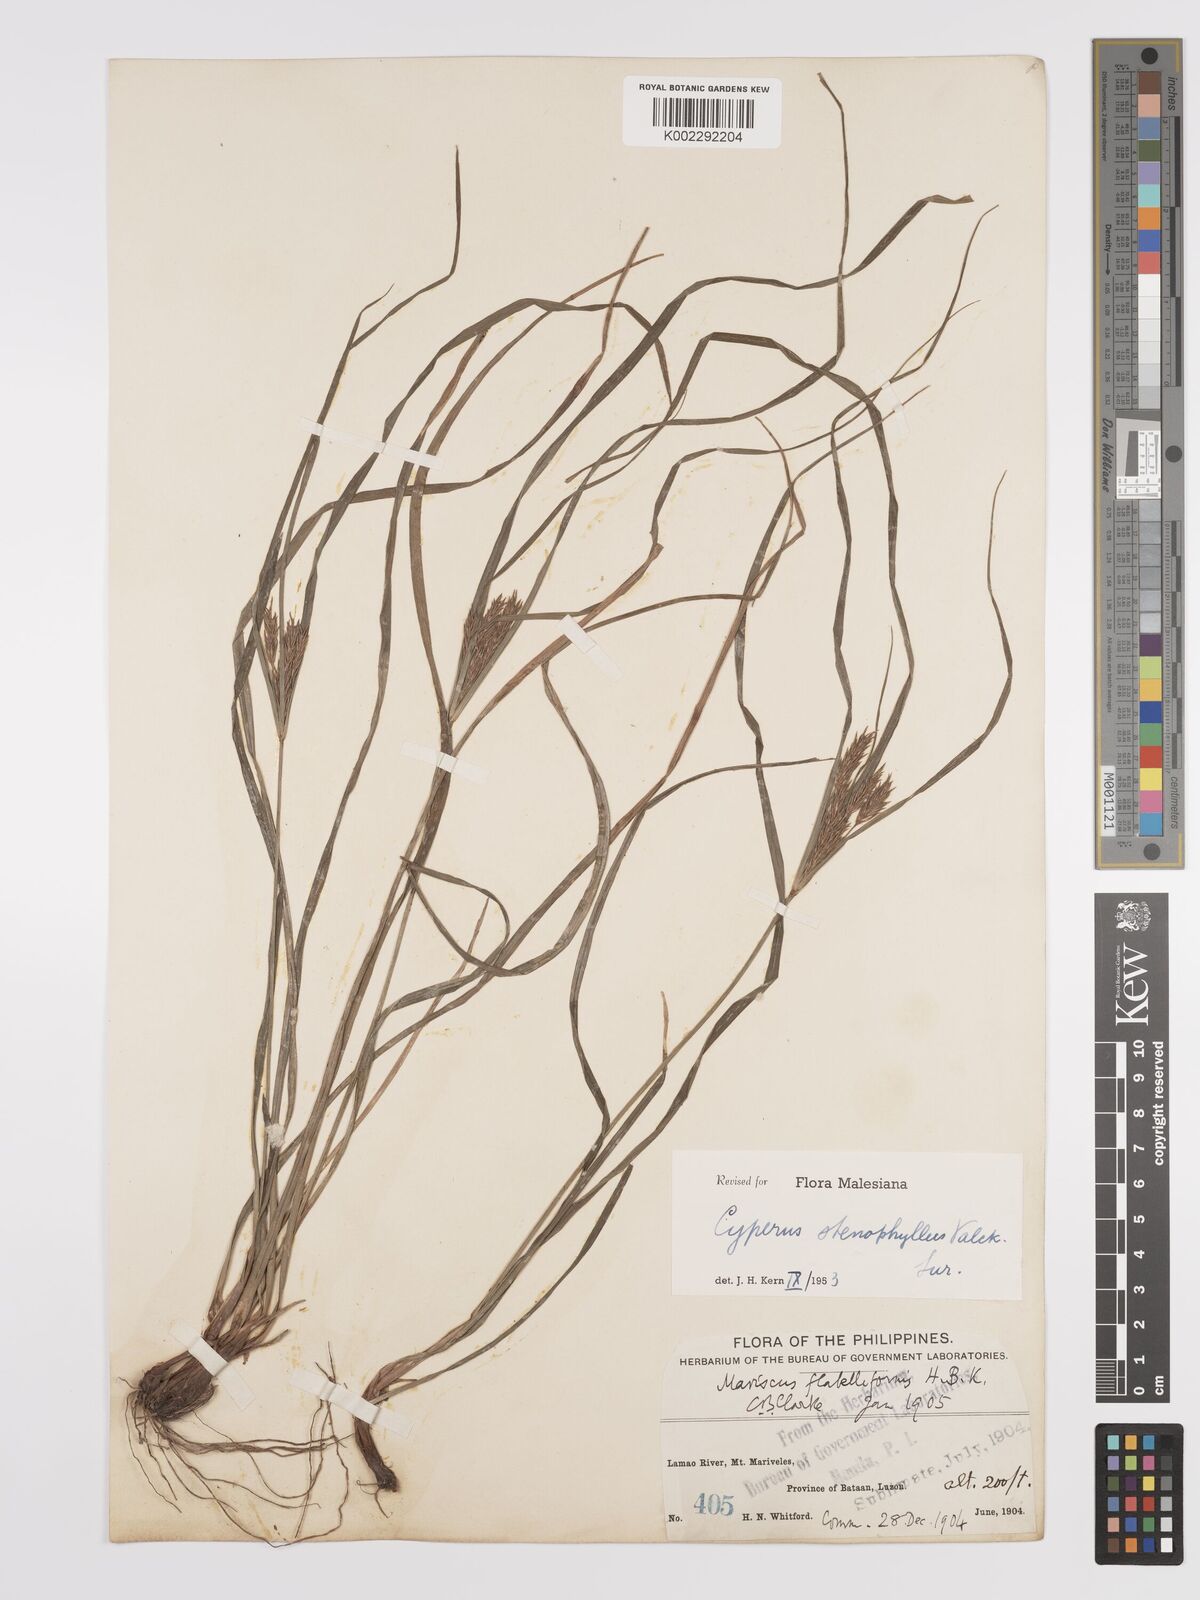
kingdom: Plantae
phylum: Tracheophyta
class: Liliopsida
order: Poales
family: Cyperaceae
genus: Cyperus
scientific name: Cyperus stenophyllus
